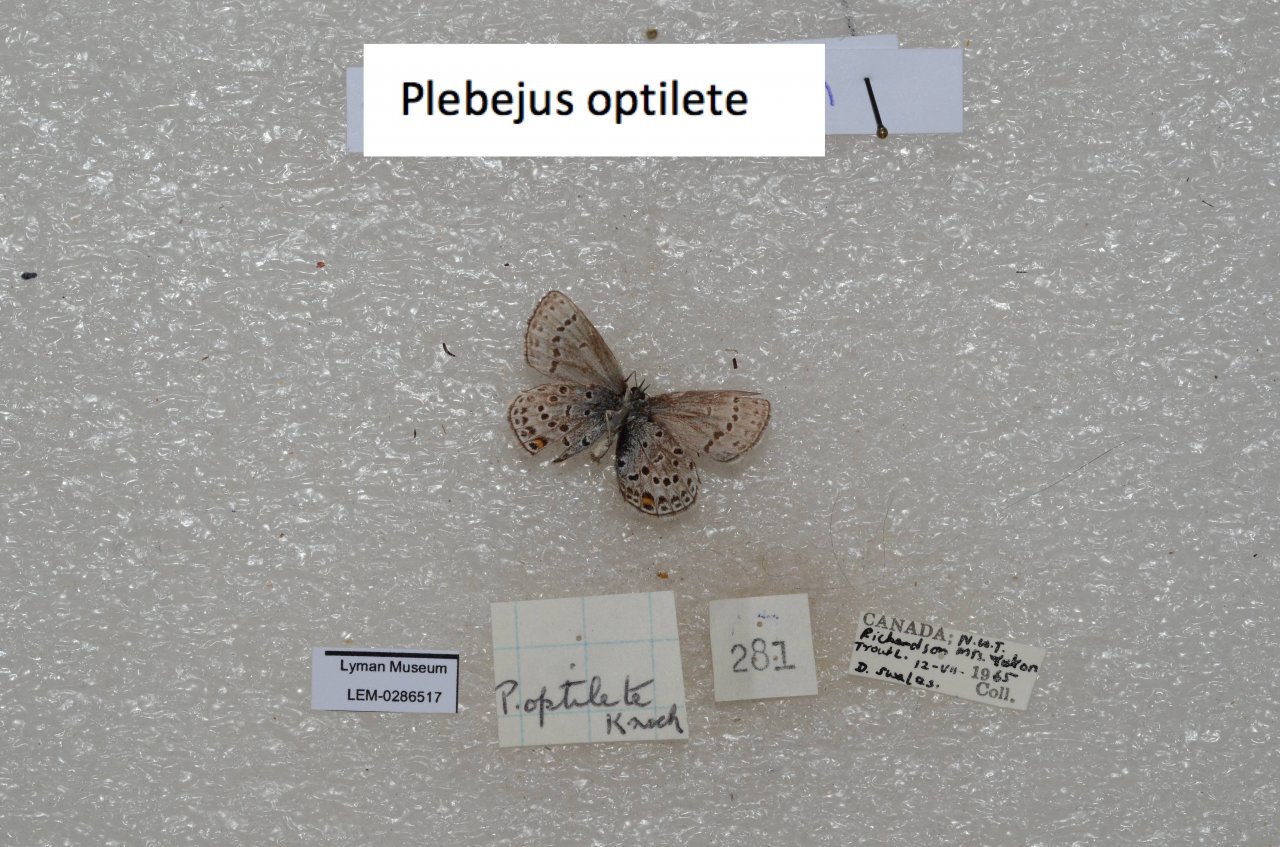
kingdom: Animalia
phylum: Arthropoda
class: Insecta
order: Lepidoptera
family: Lycaenidae
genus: Vacciniina
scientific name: Vacciniina optilete
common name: Cranberry Blue
